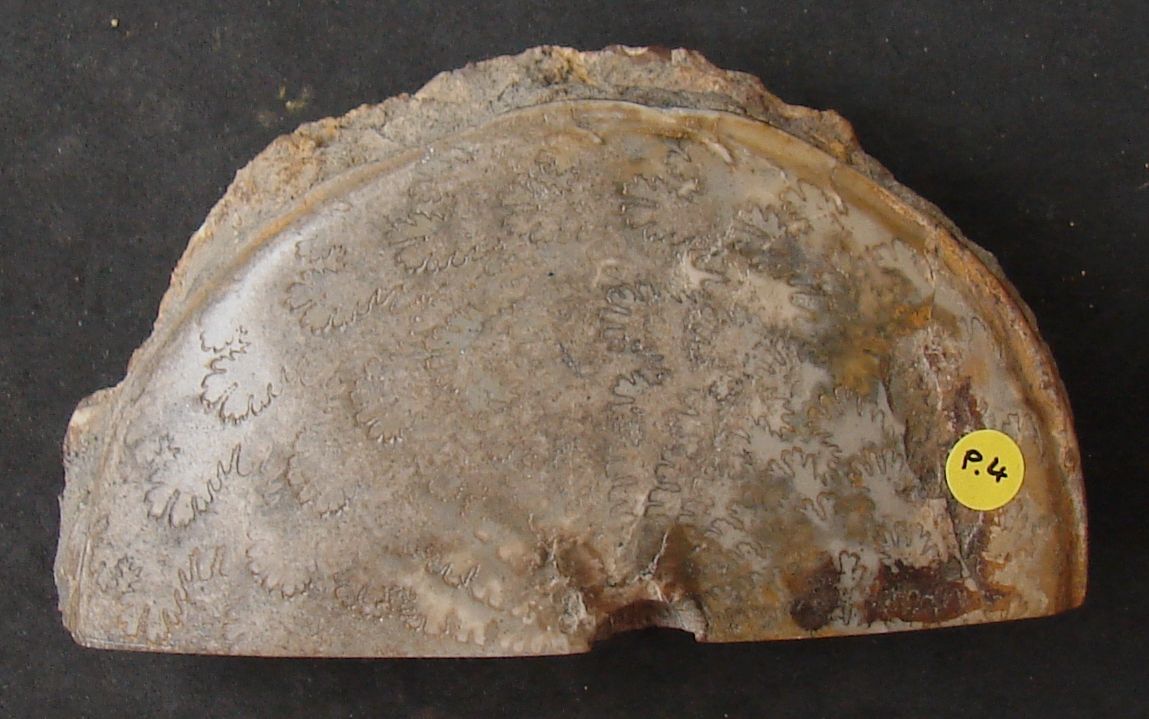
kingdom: Animalia
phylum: Mollusca
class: Cephalopoda
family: Graphoceratidae
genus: Hyperlioceras
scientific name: Hyperlioceras
